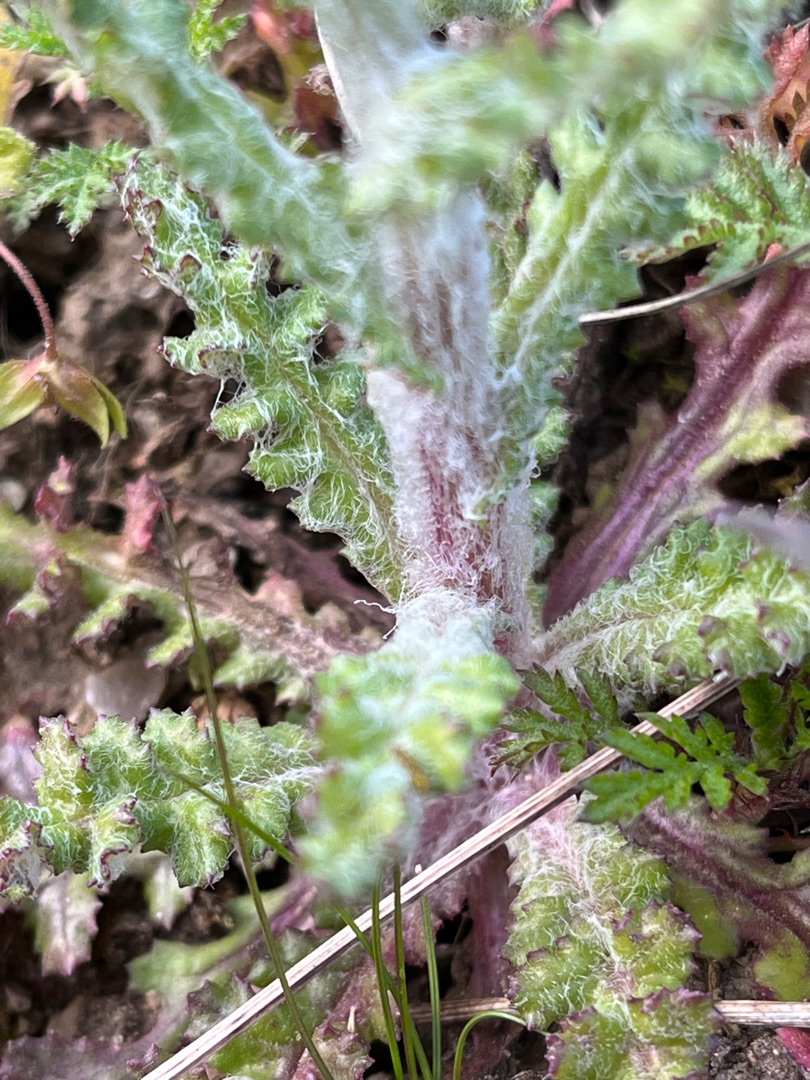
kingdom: Plantae
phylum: Tracheophyta
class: Magnoliopsida
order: Asterales
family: Asteraceae
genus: Senecio
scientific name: Senecio leucanthemifolius
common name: Vår-brandbæger
